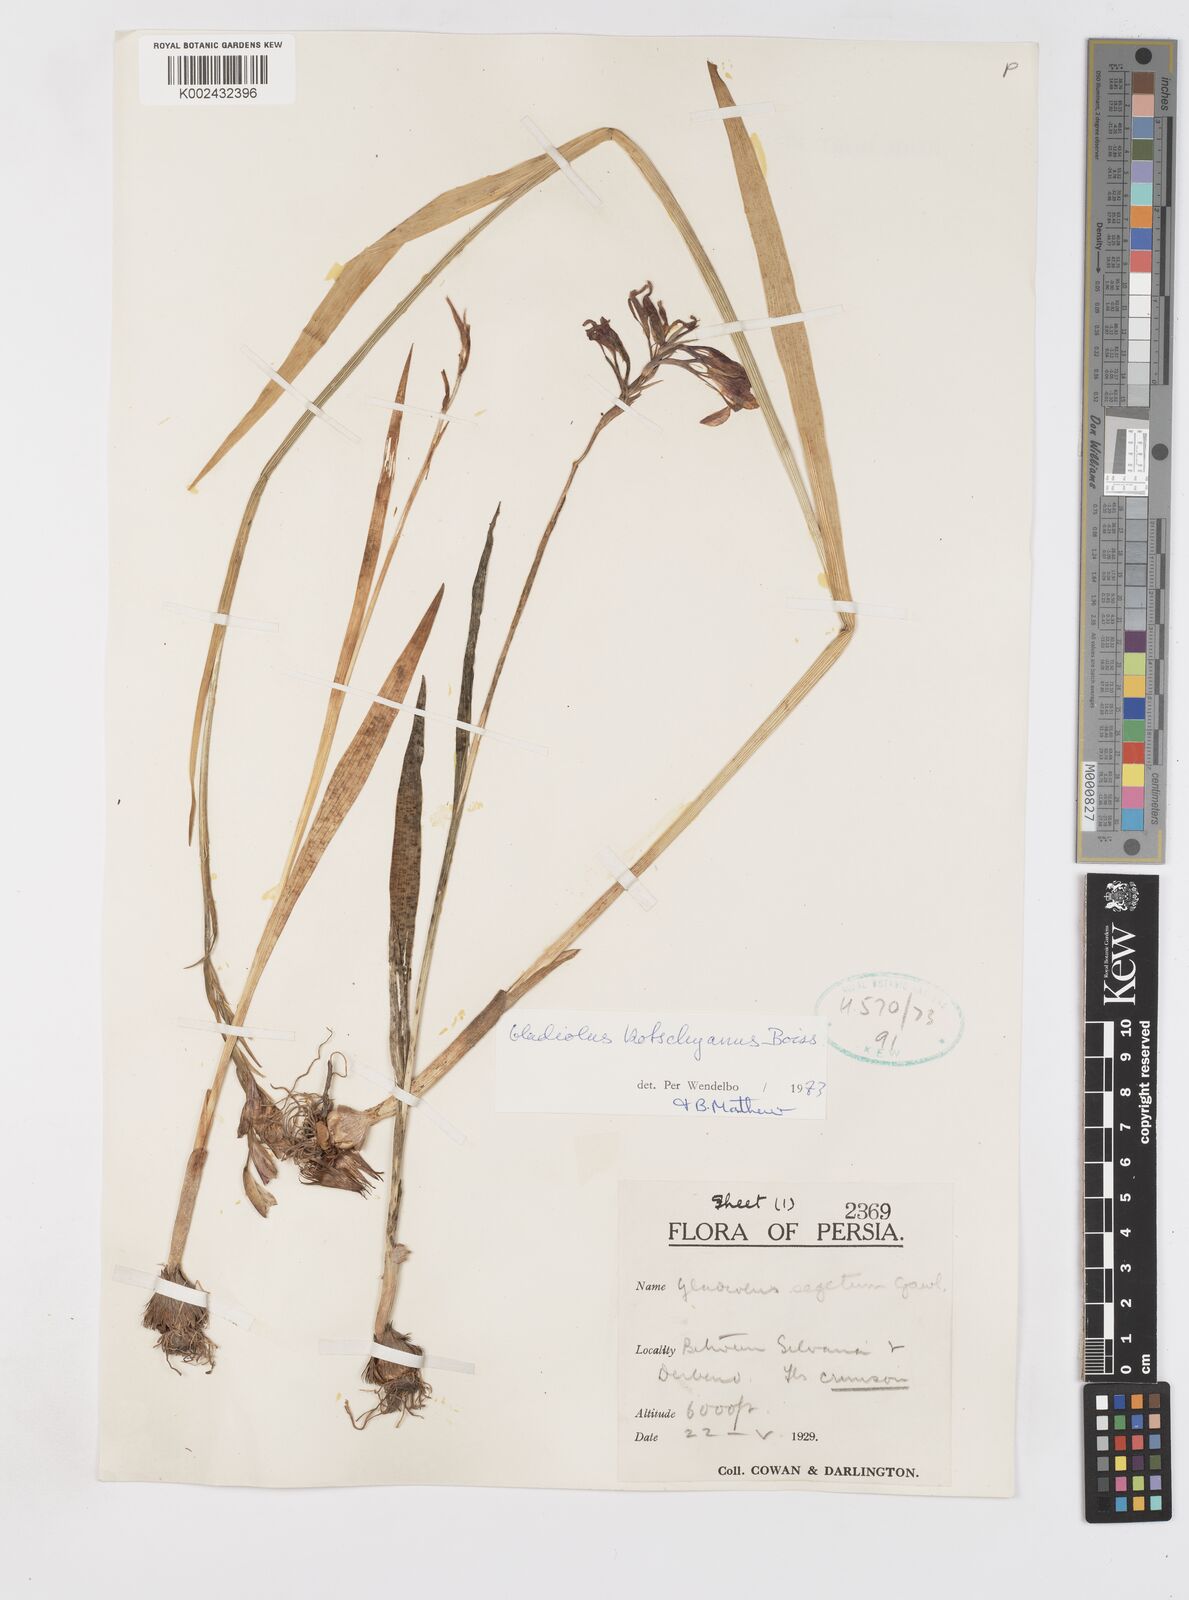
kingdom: Plantae
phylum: Tracheophyta
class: Liliopsida
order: Asparagales
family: Iridaceae
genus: Gladiolus
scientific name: Gladiolus kotschyanus
